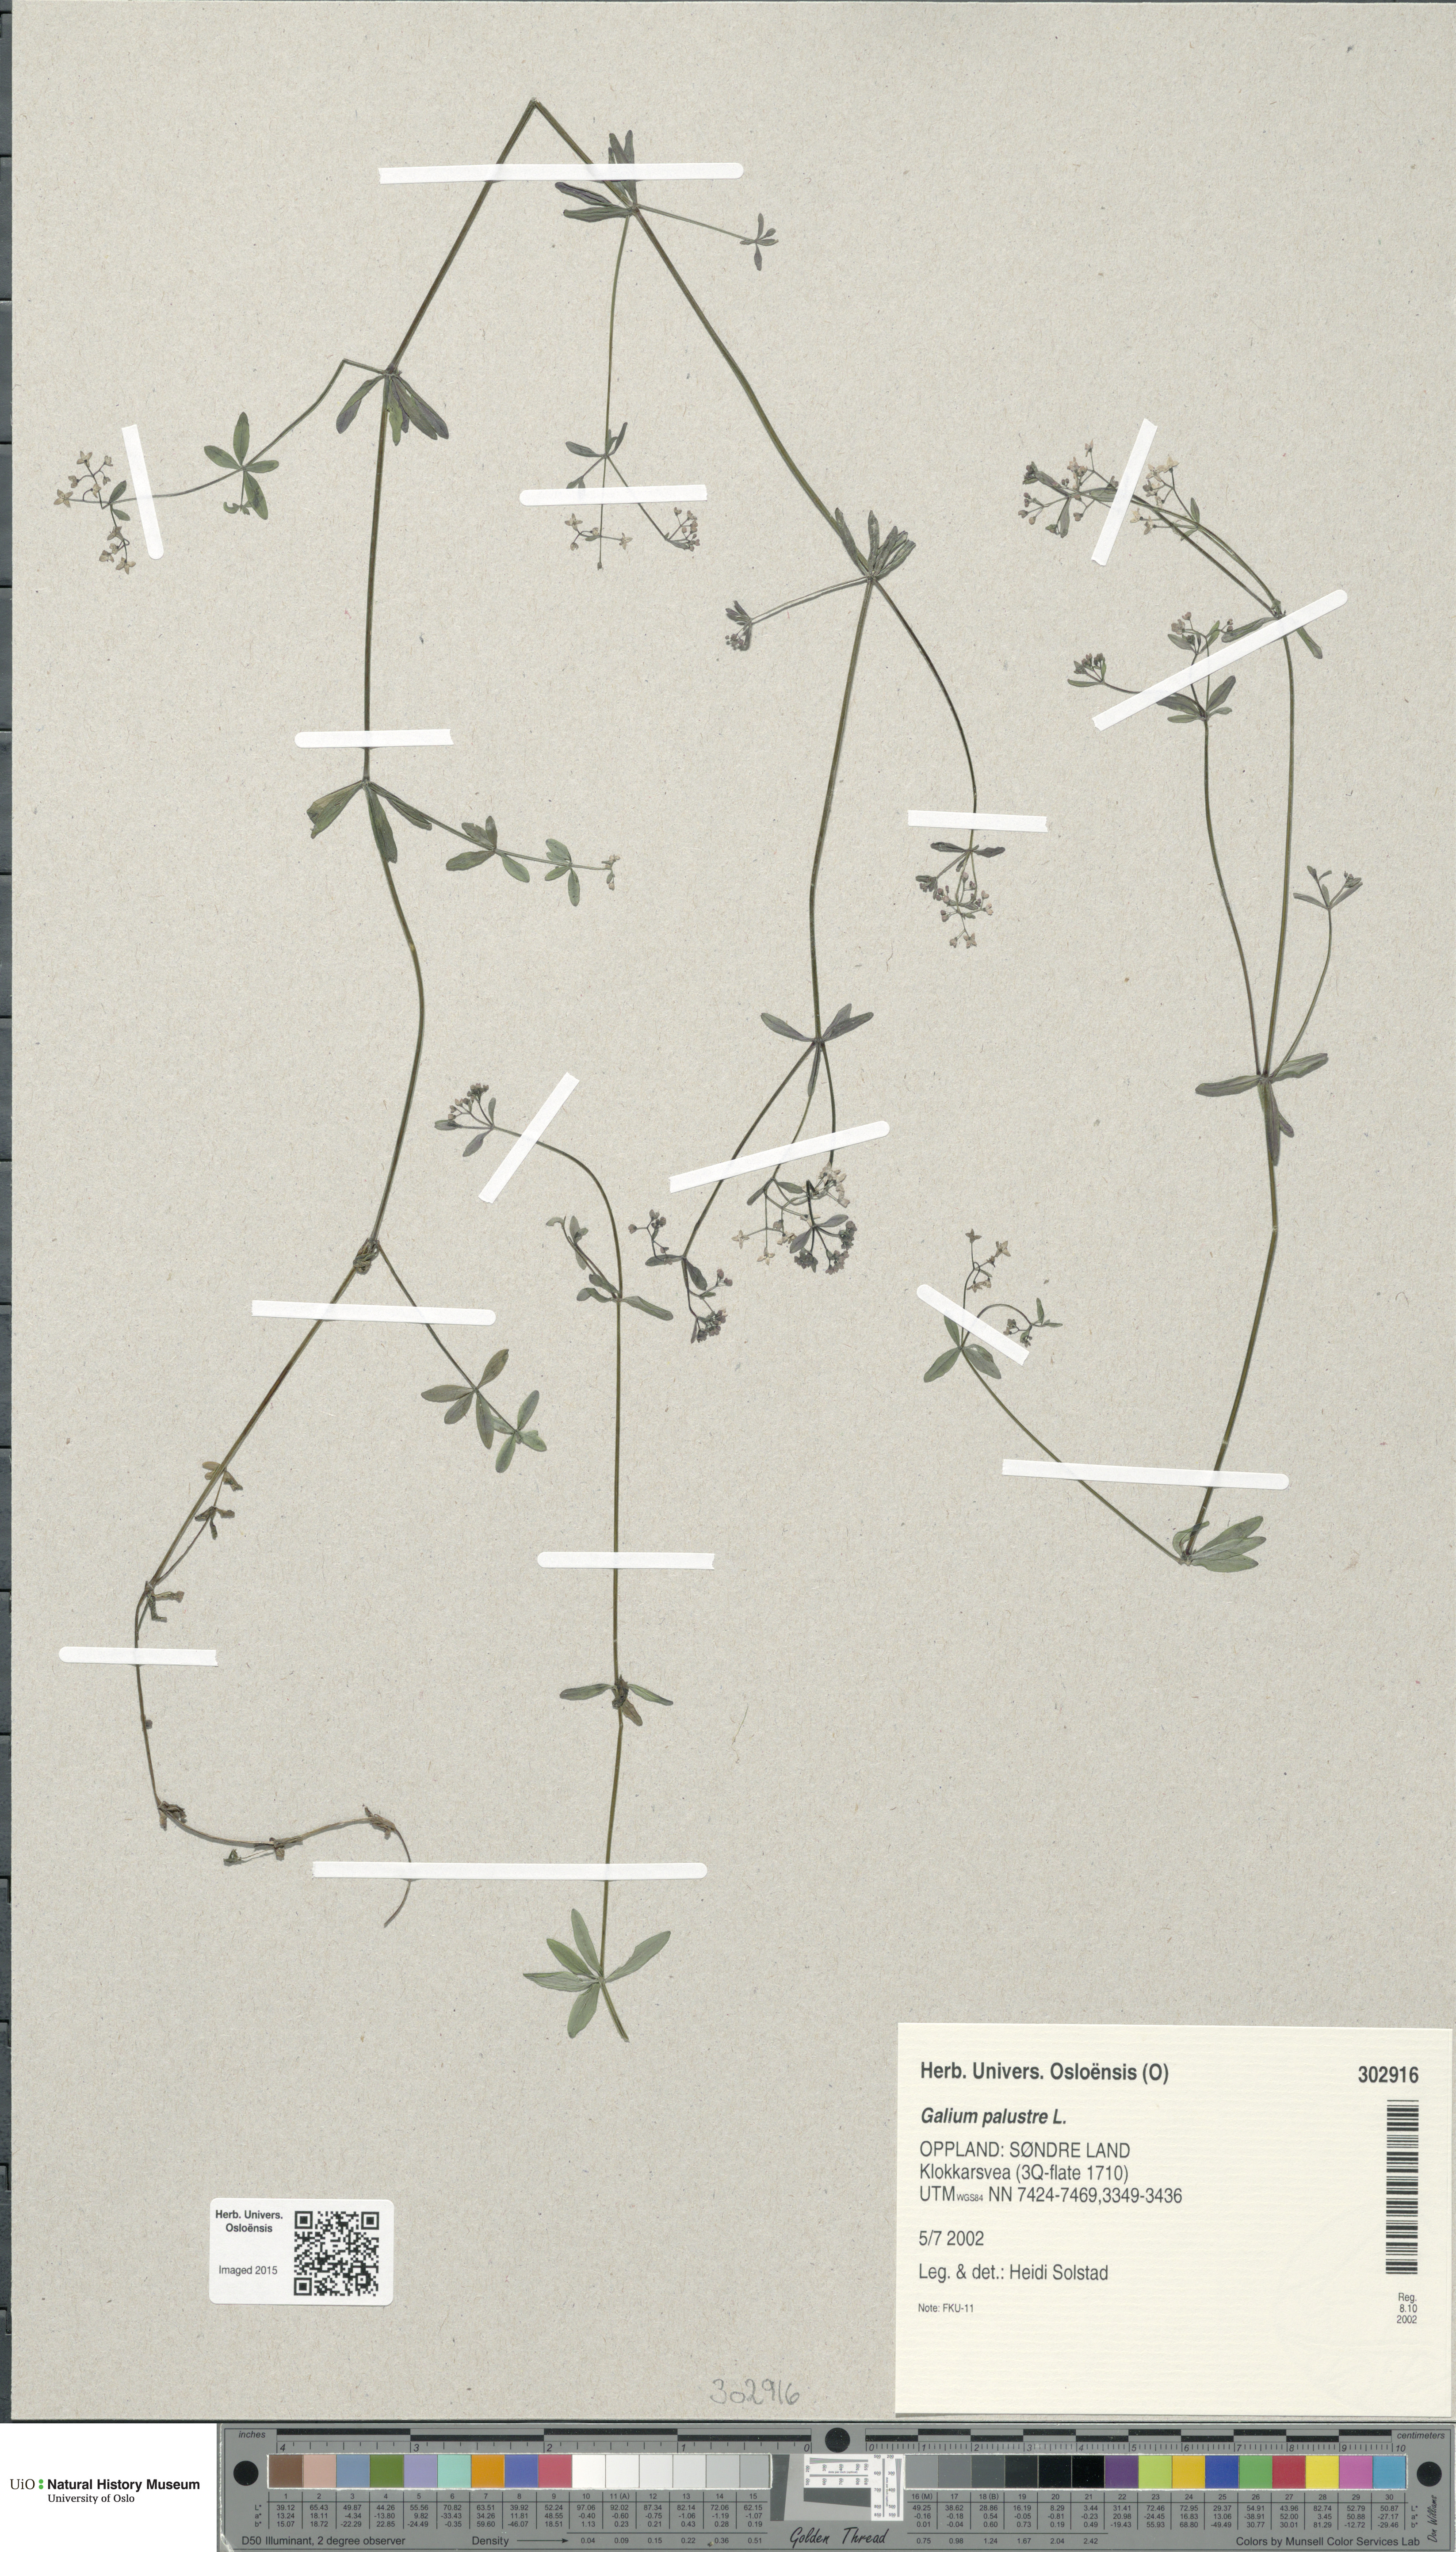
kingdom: Plantae
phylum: Tracheophyta
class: Magnoliopsida
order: Gentianales
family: Rubiaceae
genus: Galium
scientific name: Galium palustre
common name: Common marsh-bedstraw
